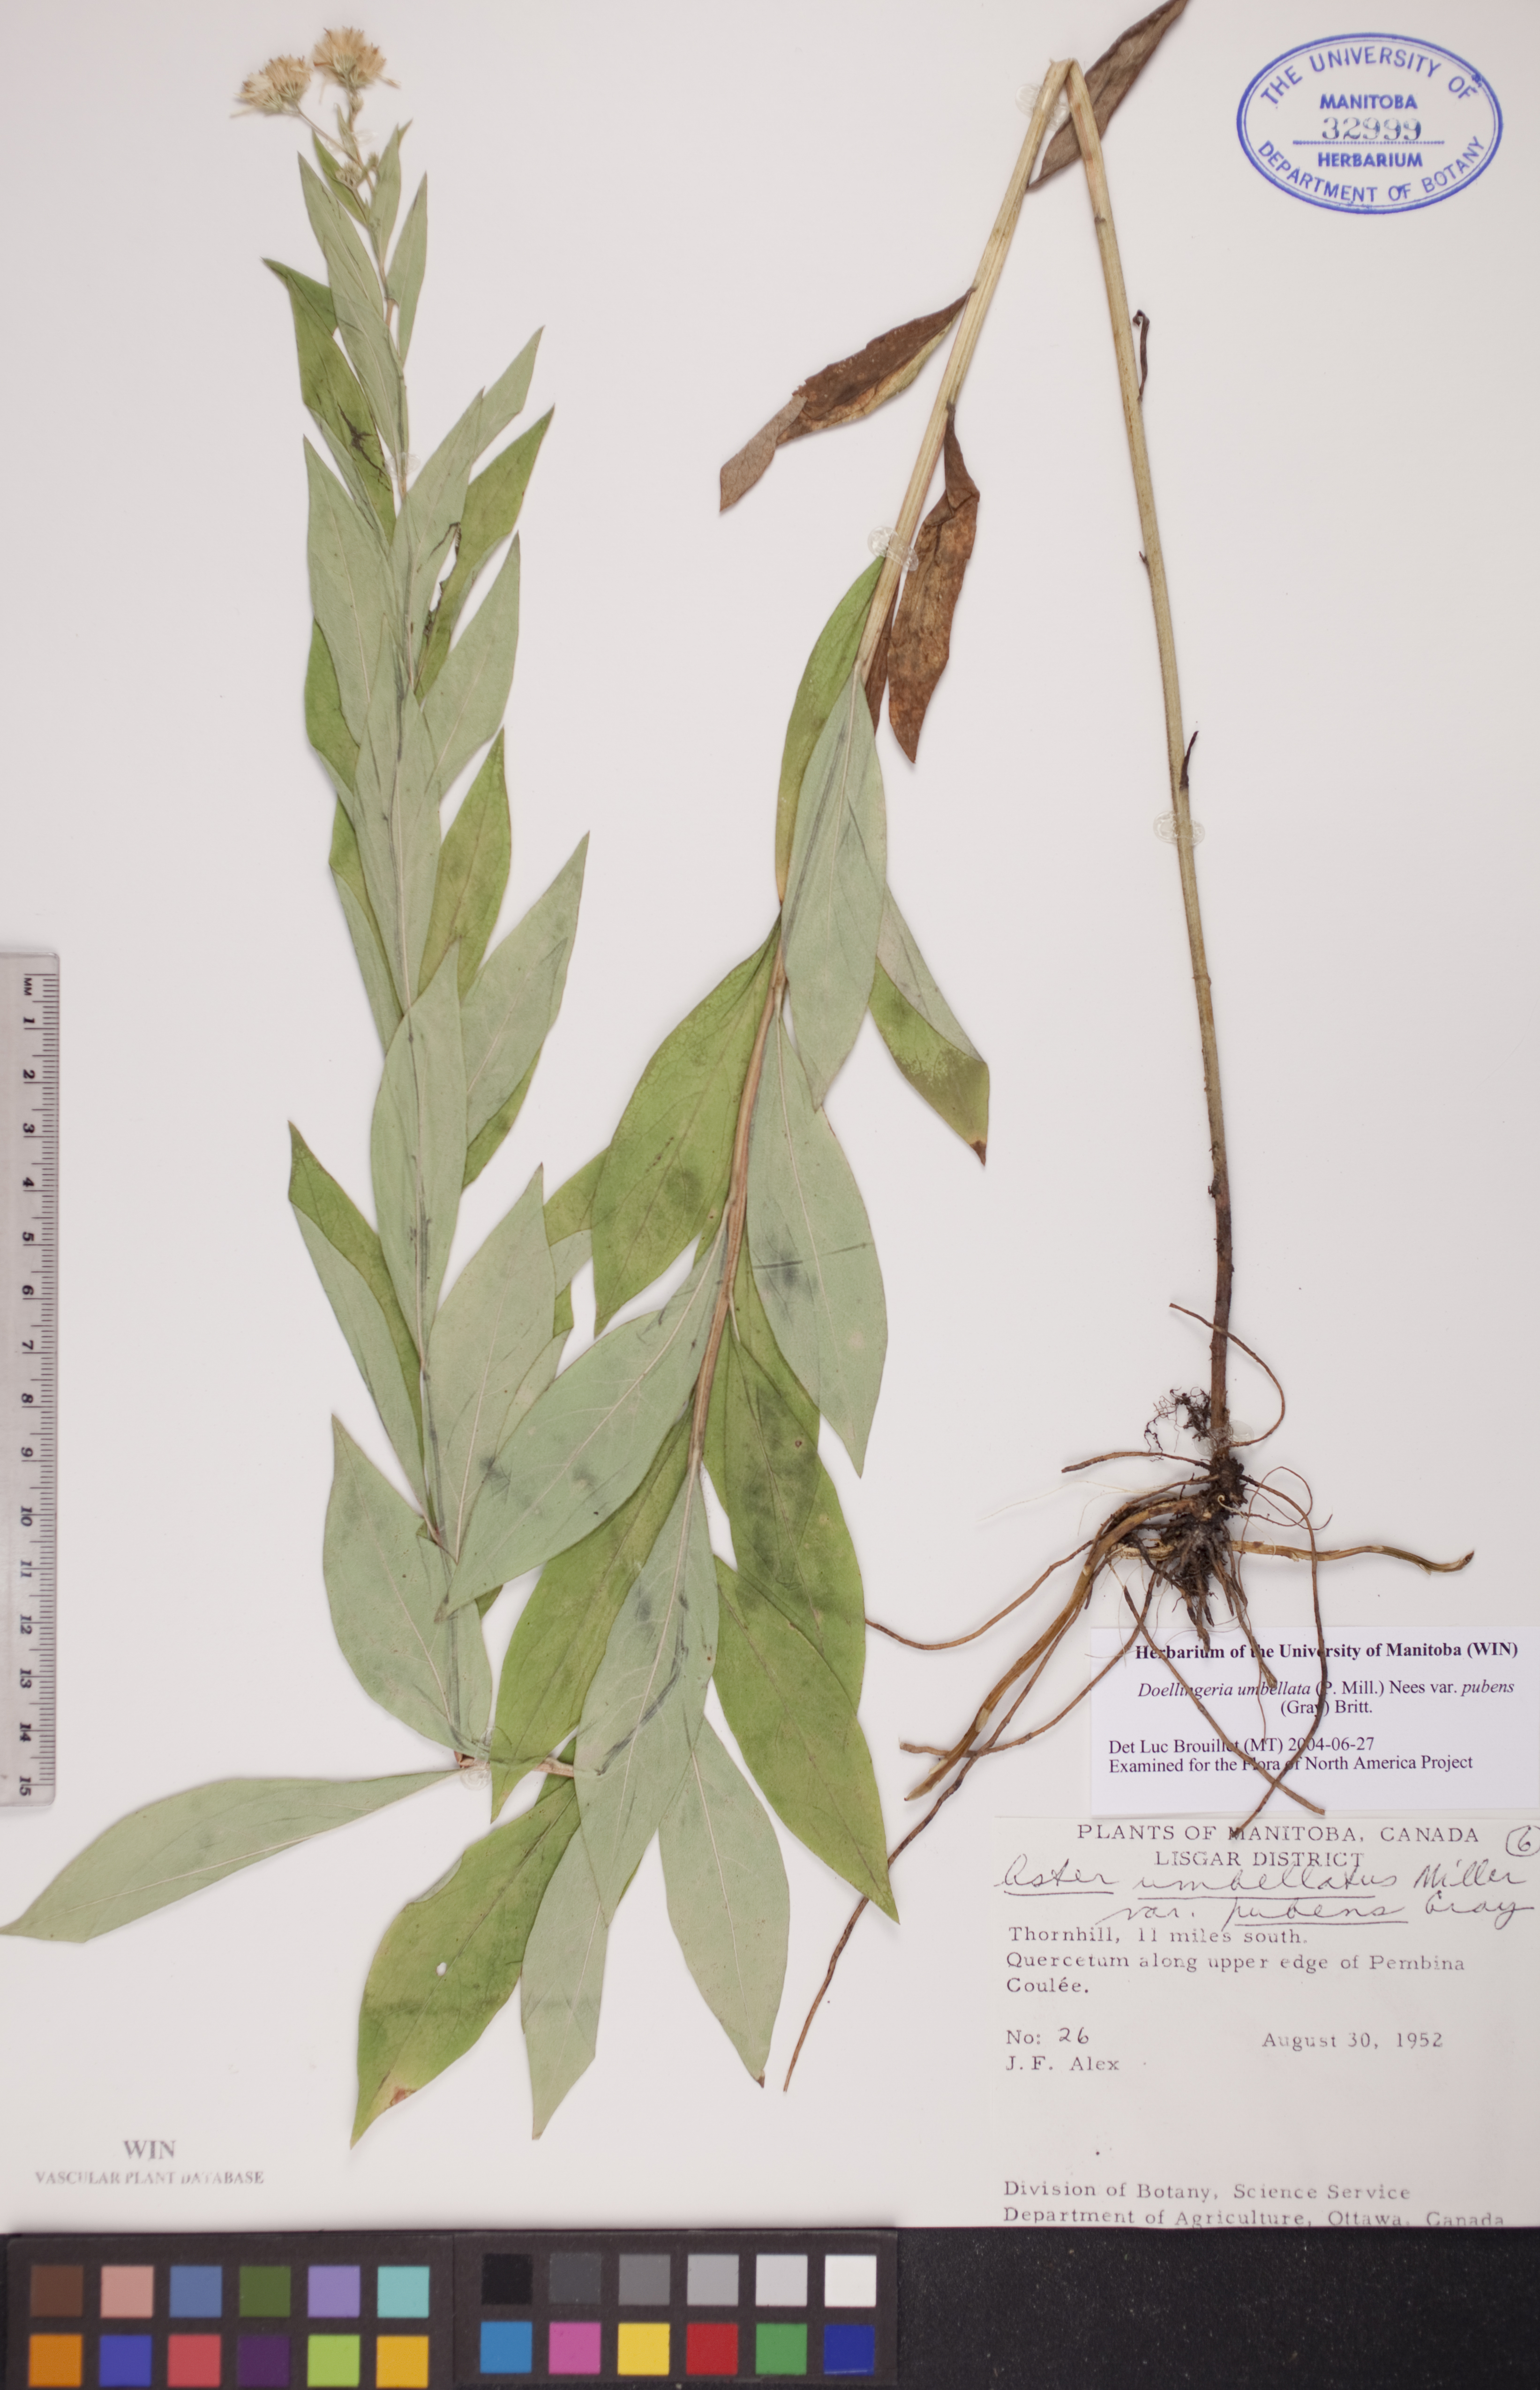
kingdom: Plantae
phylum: Tracheophyta
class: Magnoliopsida
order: Asterales
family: Asteraceae
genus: Doellingeria
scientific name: Doellingeria umbellata
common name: Flat-top white aster
